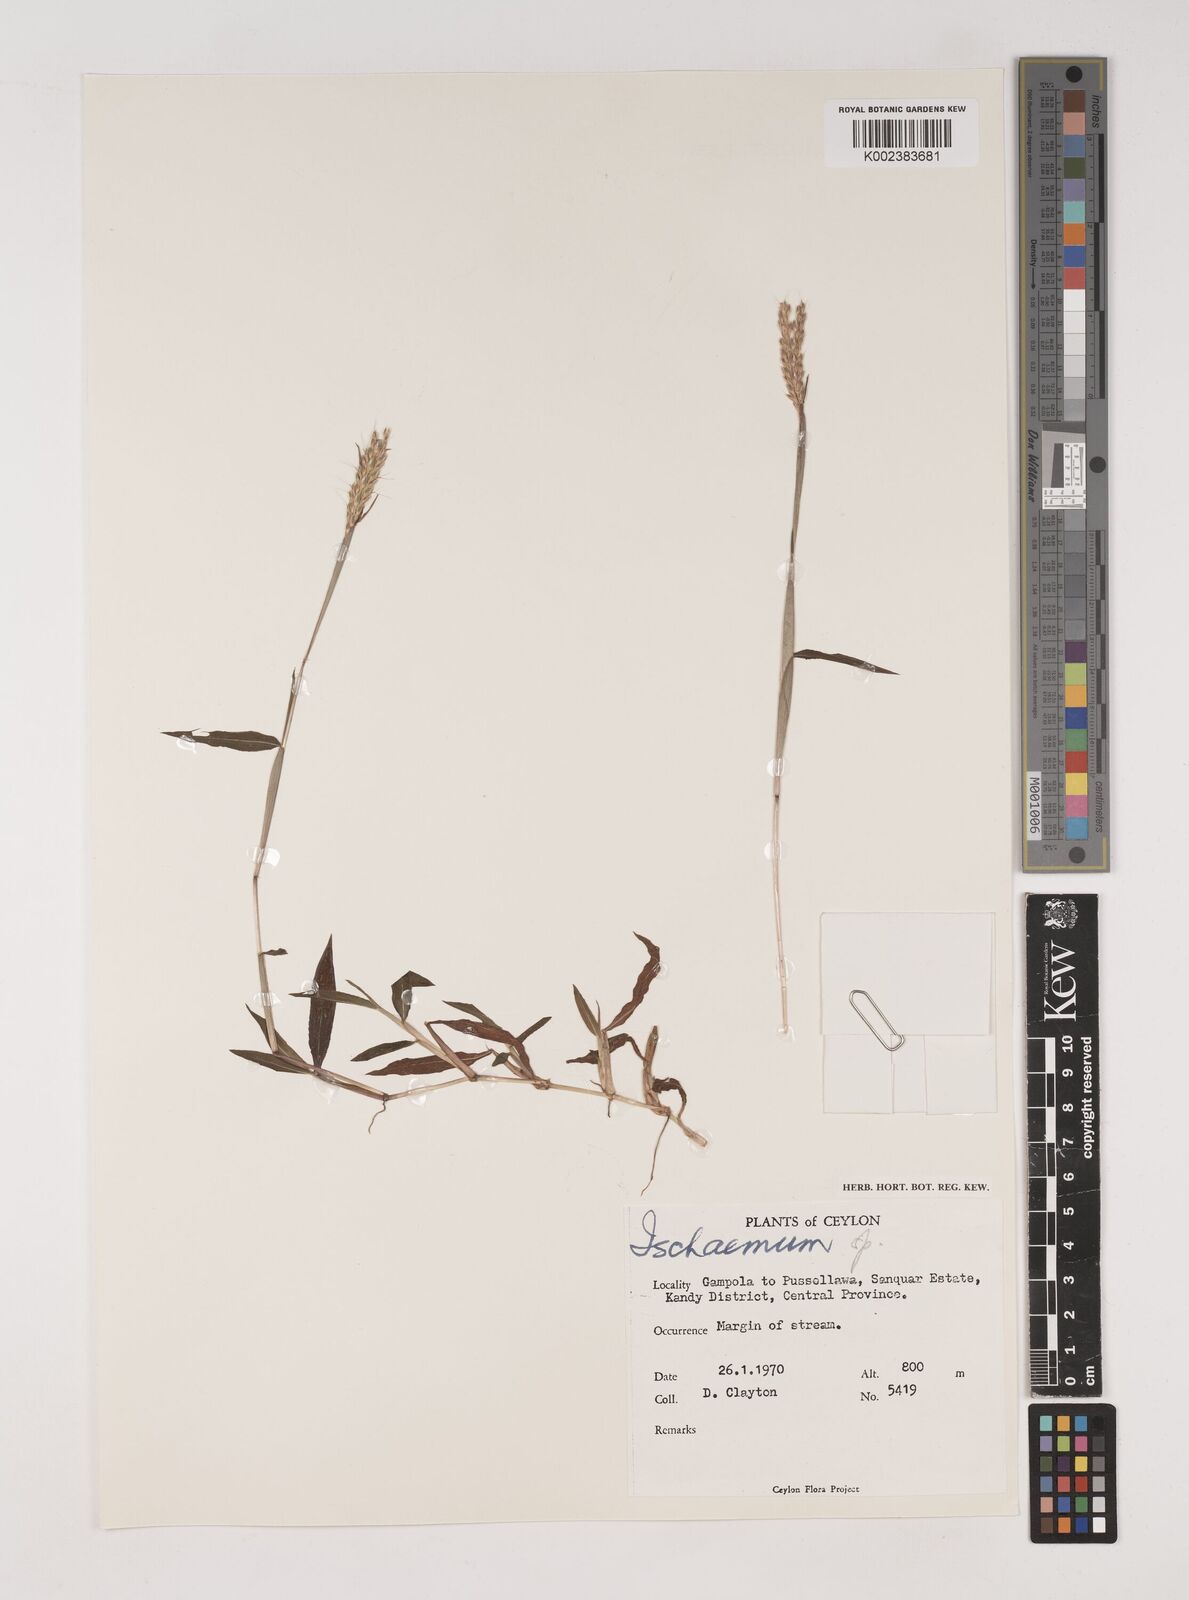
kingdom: Plantae
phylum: Tracheophyta
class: Liliopsida
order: Poales
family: Poaceae
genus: Ischaemum
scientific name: Ischaemum
